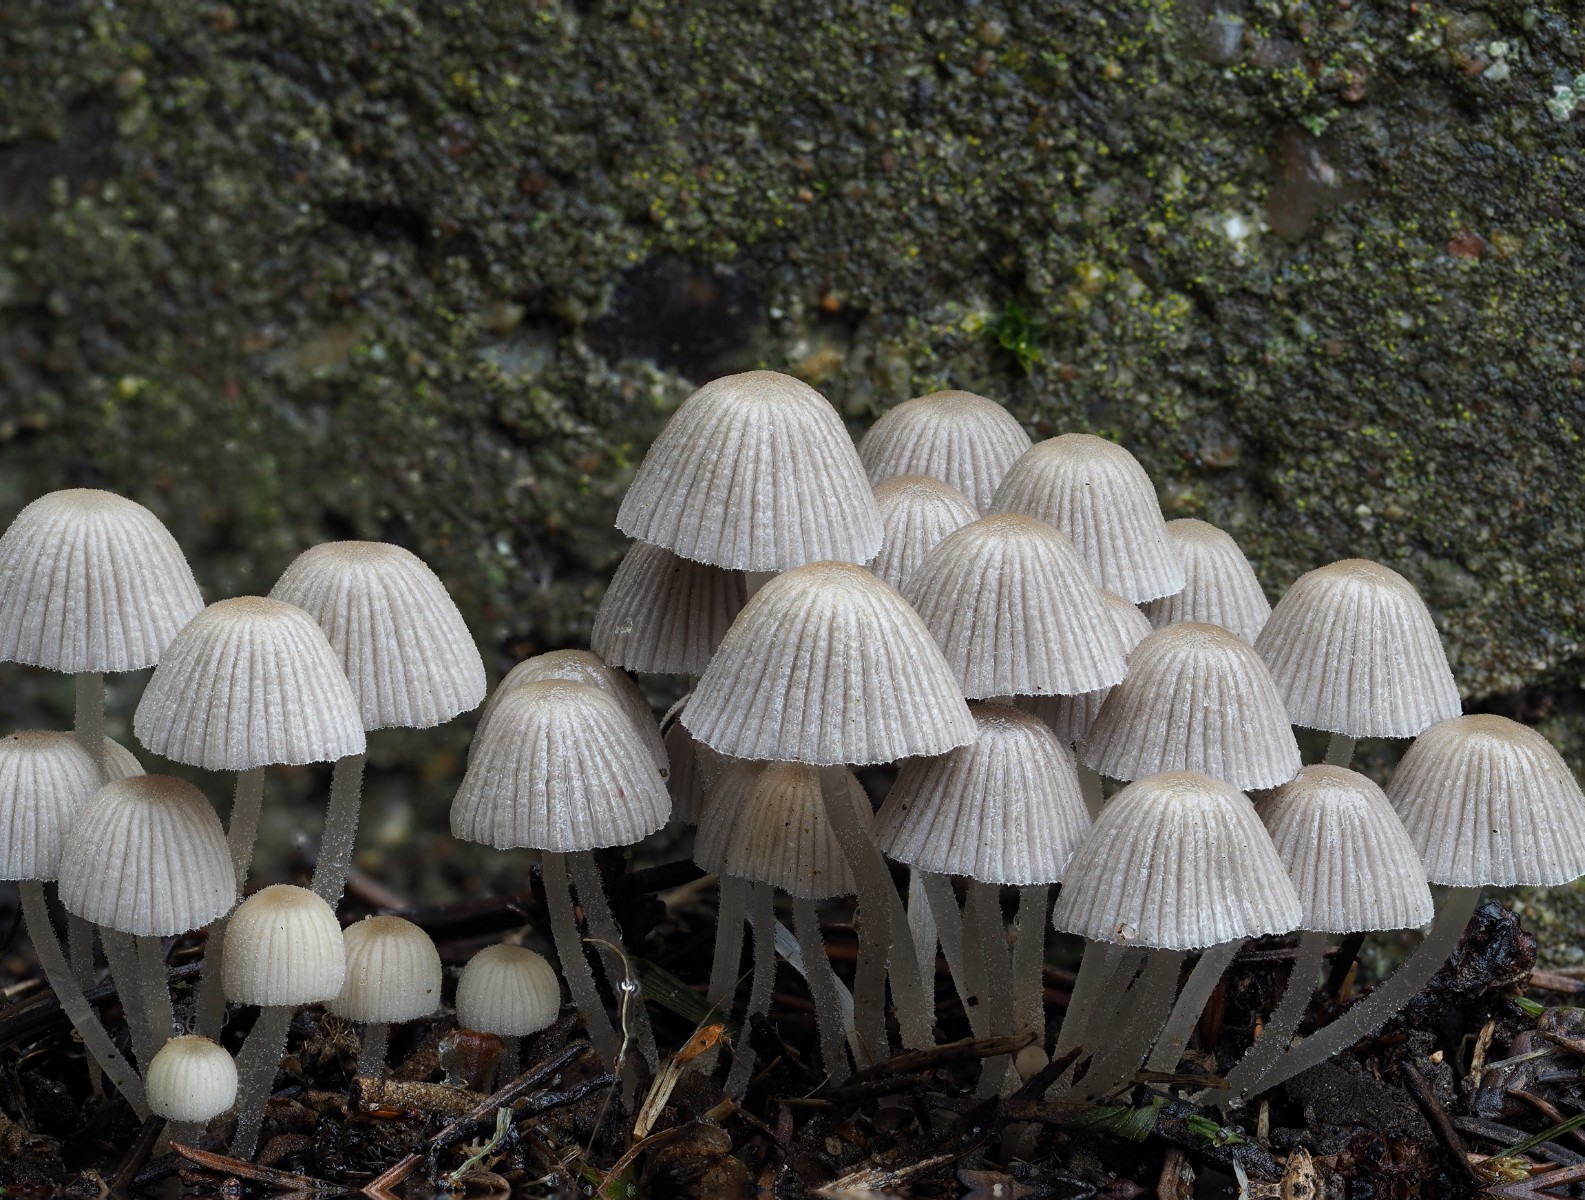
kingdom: Fungi
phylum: Basidiomycota
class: Agaricomycetes
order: Agaricales
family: Psathyrellaceae
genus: Coprinellus
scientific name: Coprinellus disseminatus
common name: bredsået blækhat
